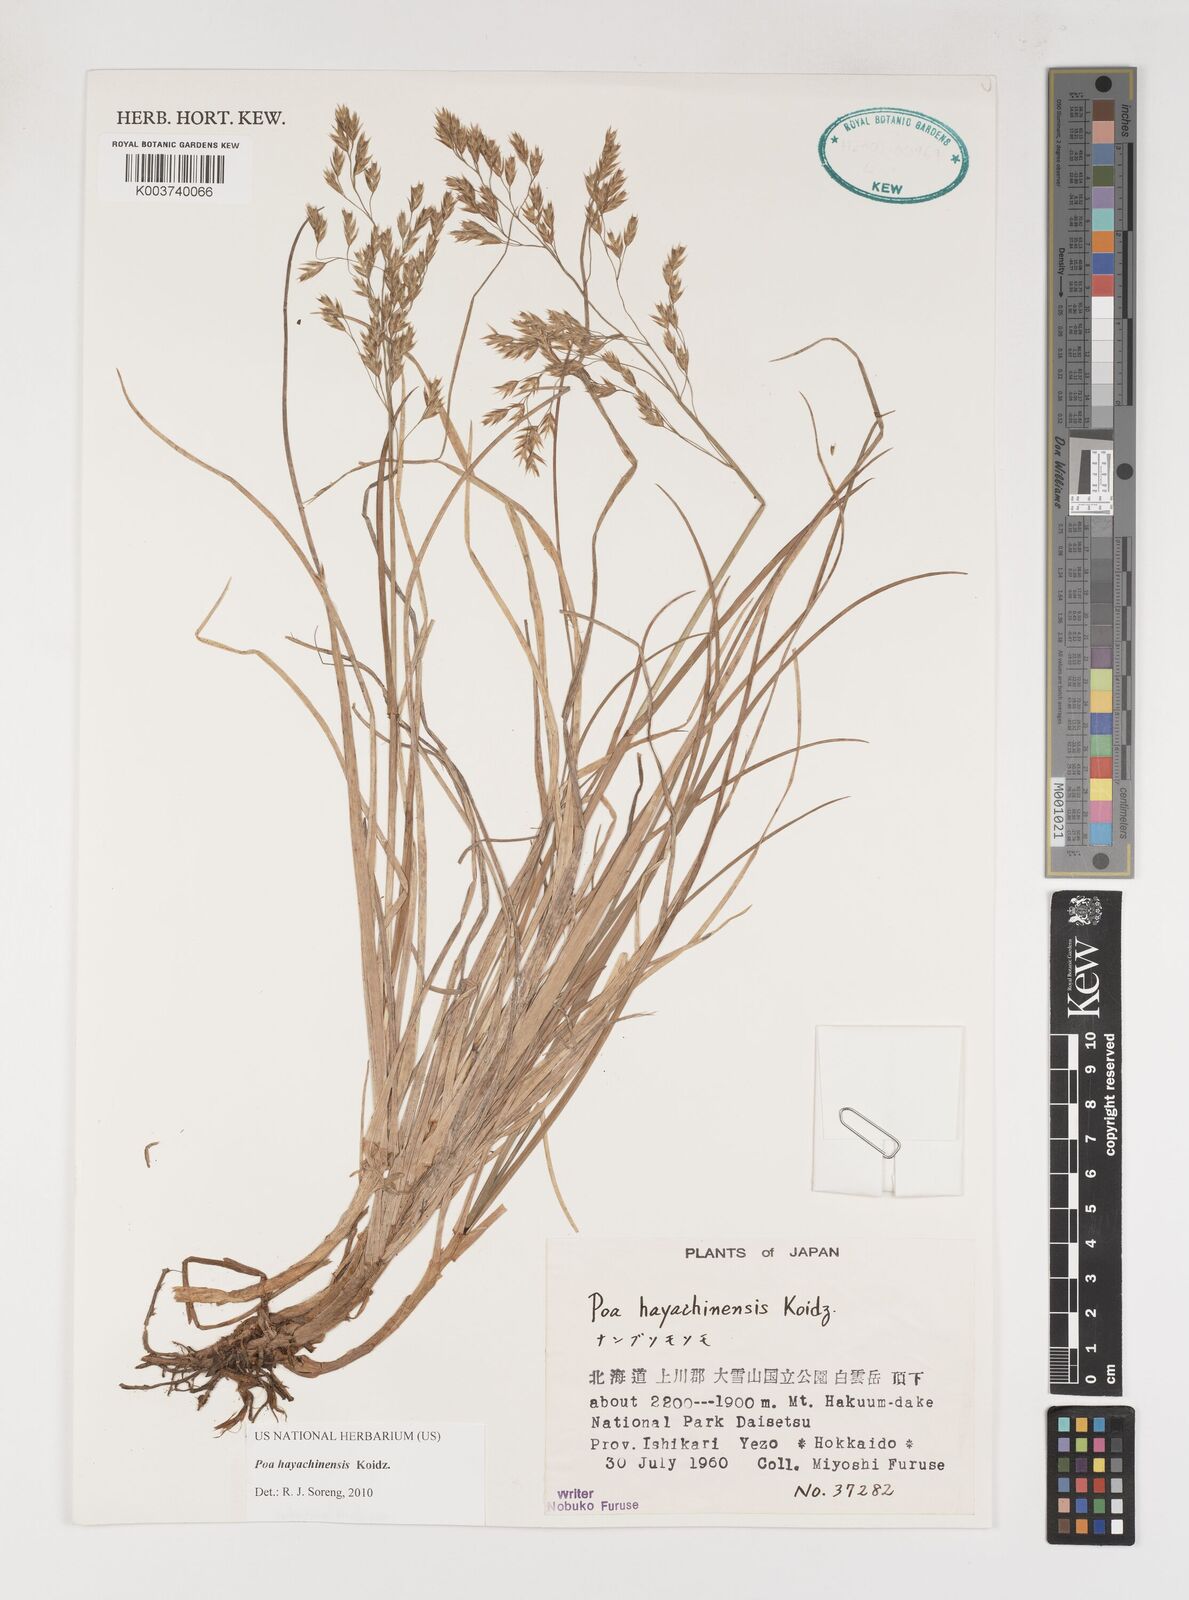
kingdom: Plantae
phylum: Tracheophyta
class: Liliopsida
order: Poales
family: Poaceae
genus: Dupontiopsis
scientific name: Dupontiopsis hayachinensis
